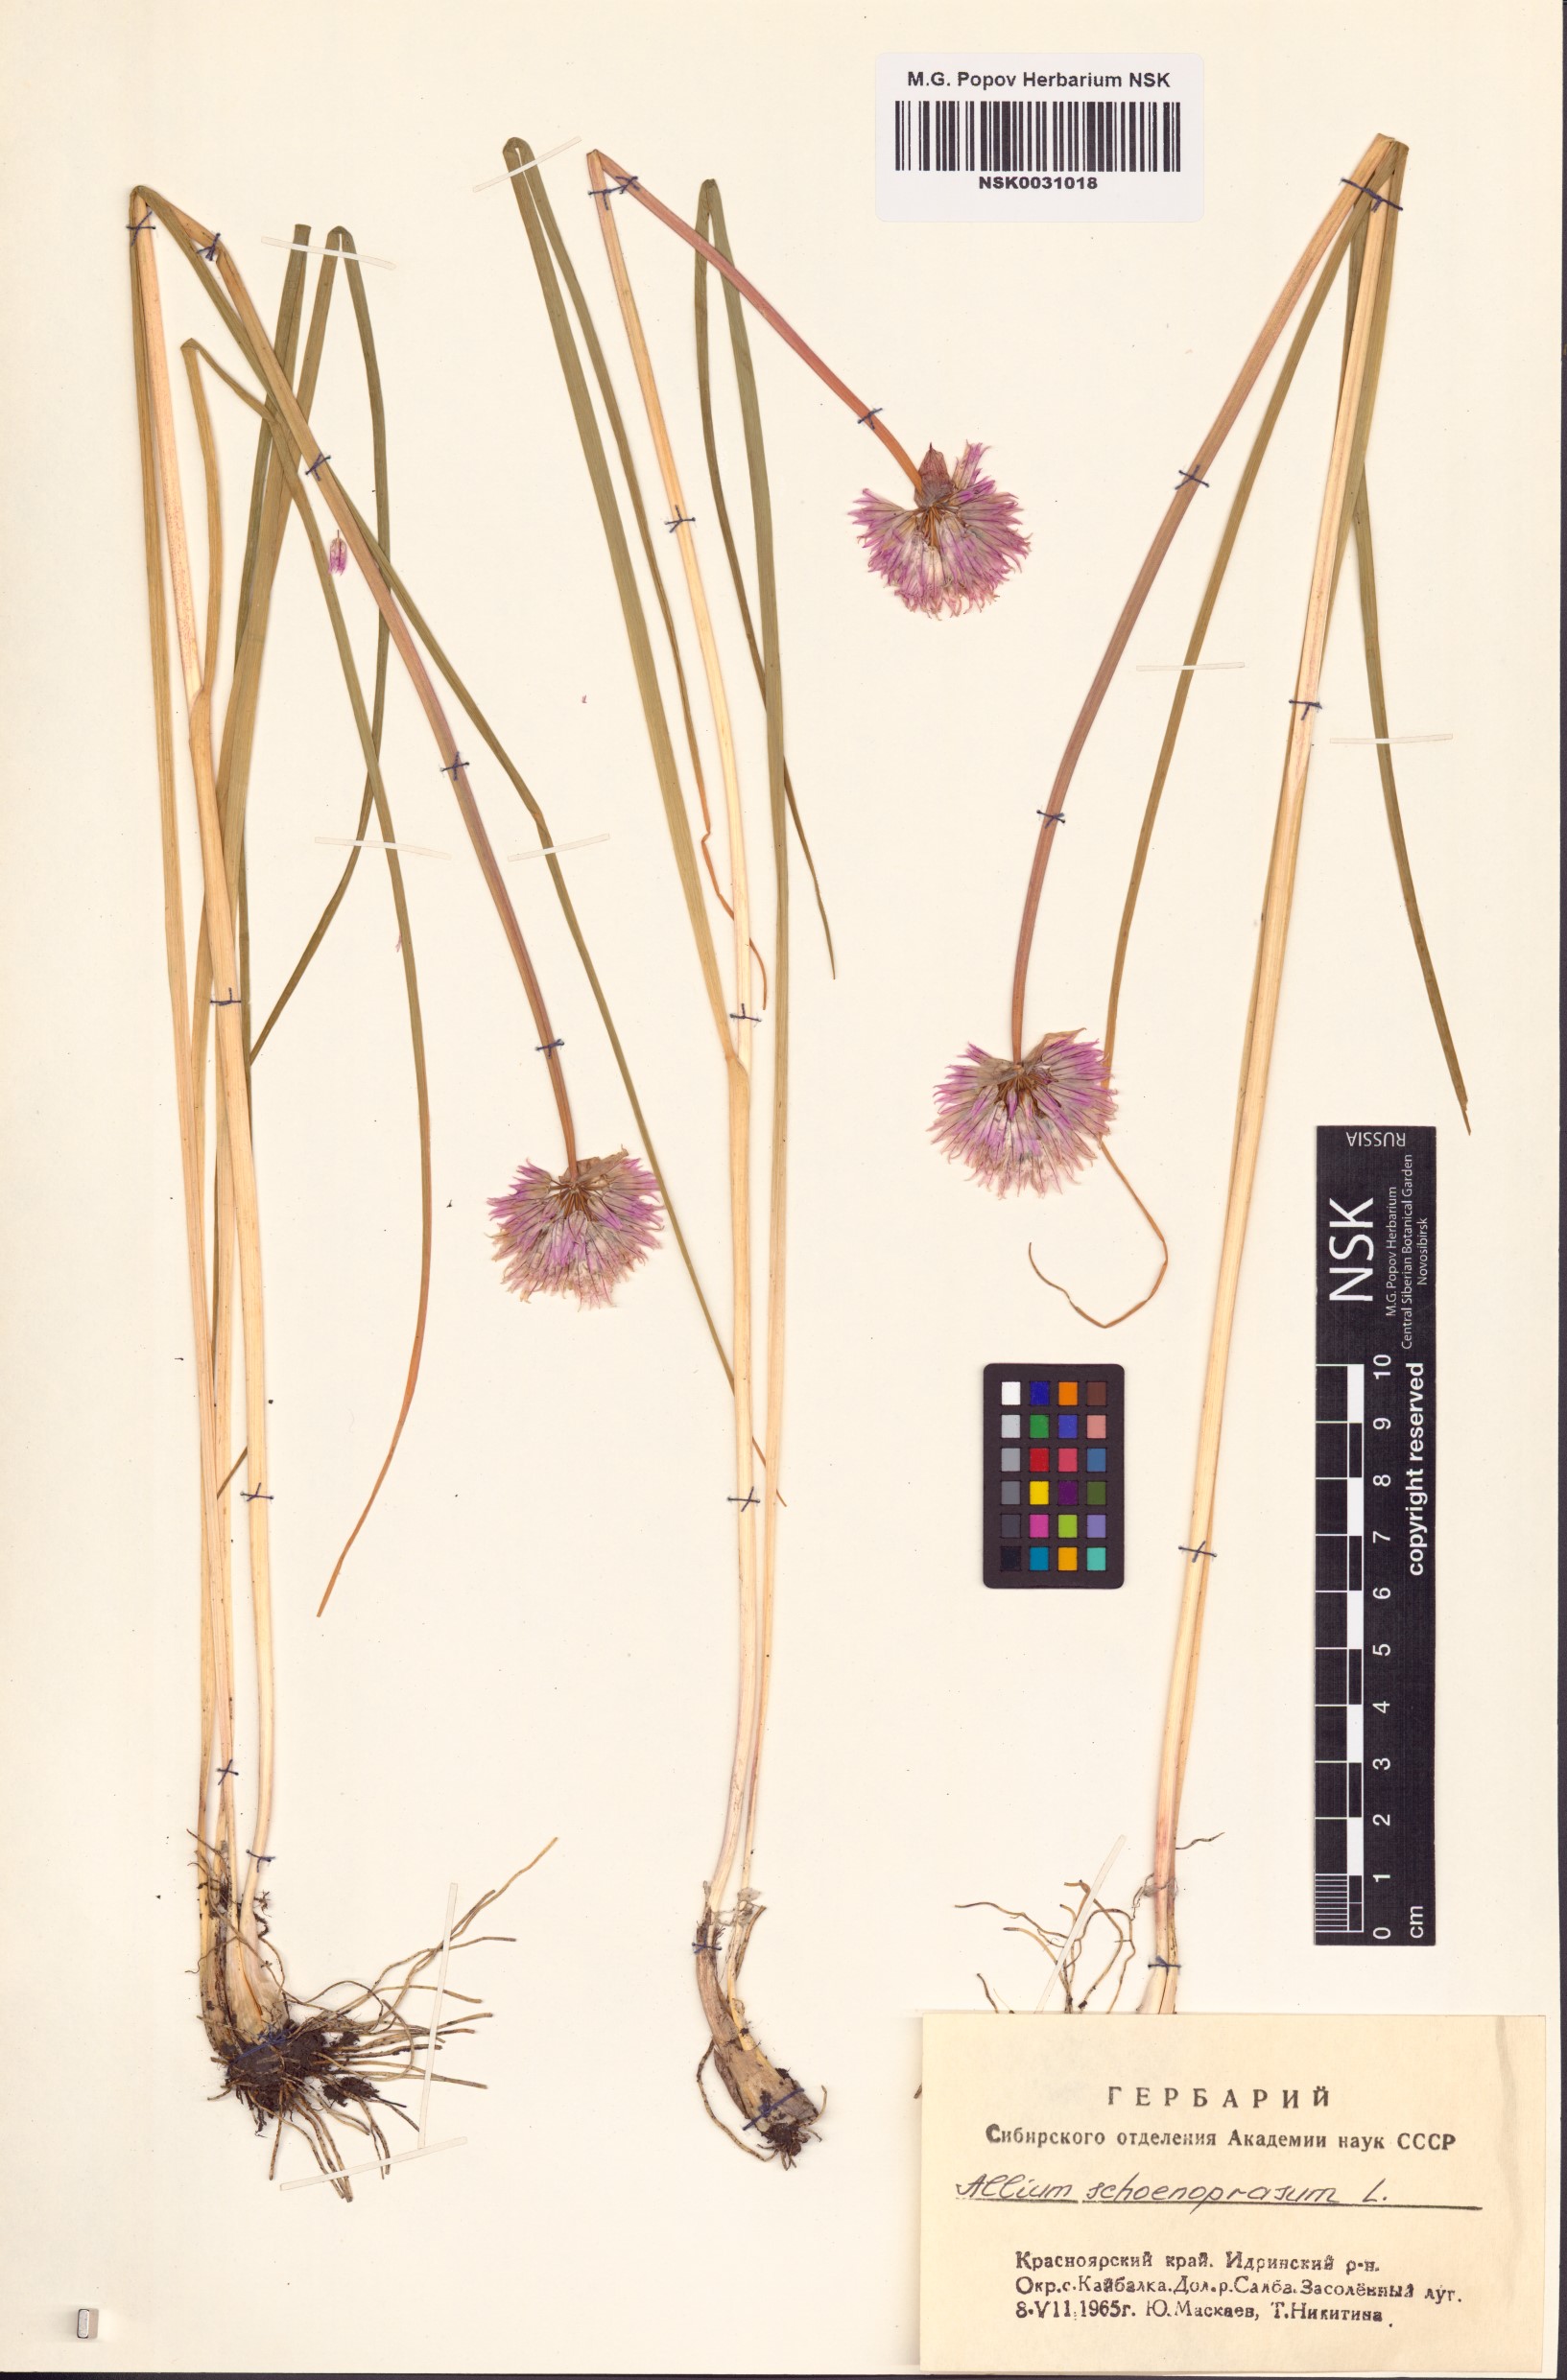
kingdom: Plantae
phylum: Tracheophyta
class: Liliopsida
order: Asparagales
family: Amaryllidaceae
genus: Allium
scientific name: Allium schoenoprasum
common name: Chives
